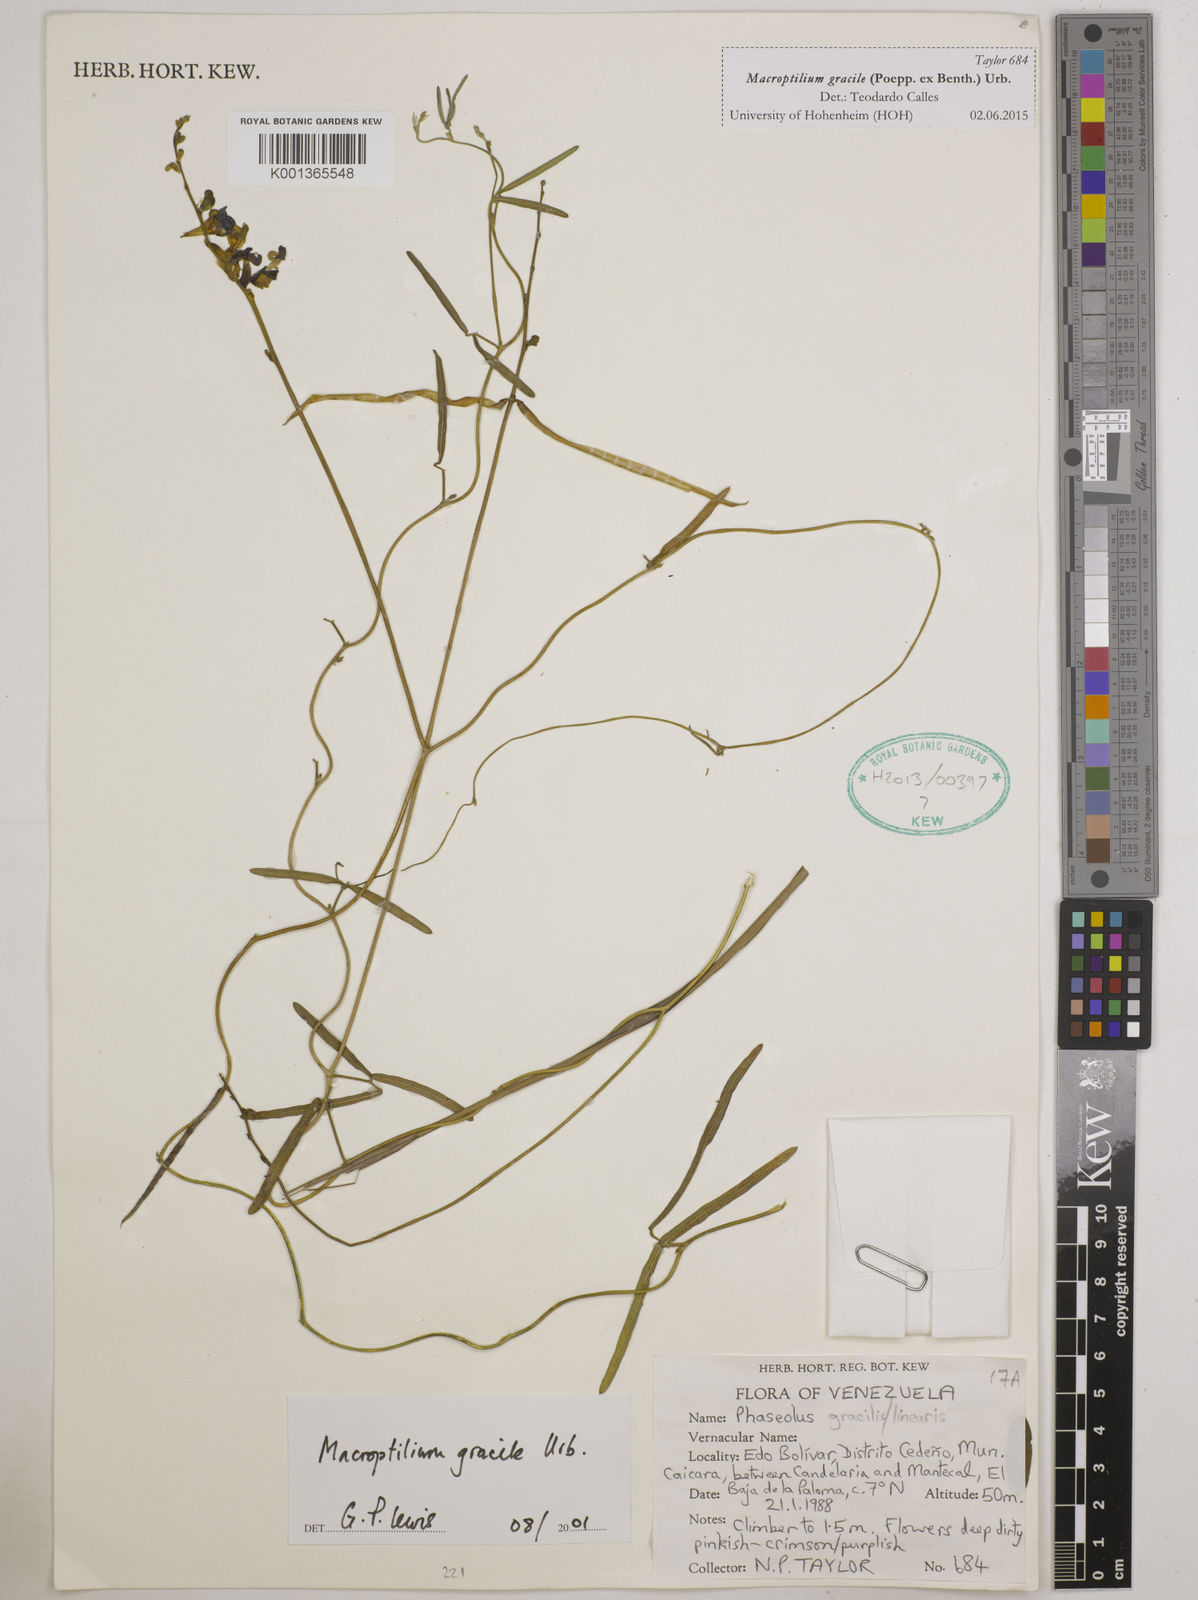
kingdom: Plantae
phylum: Tracheophyta
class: Magnoliopsida
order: Fabales
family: Fabaceae
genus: Macroptilium
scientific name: Macroptilium gracile
